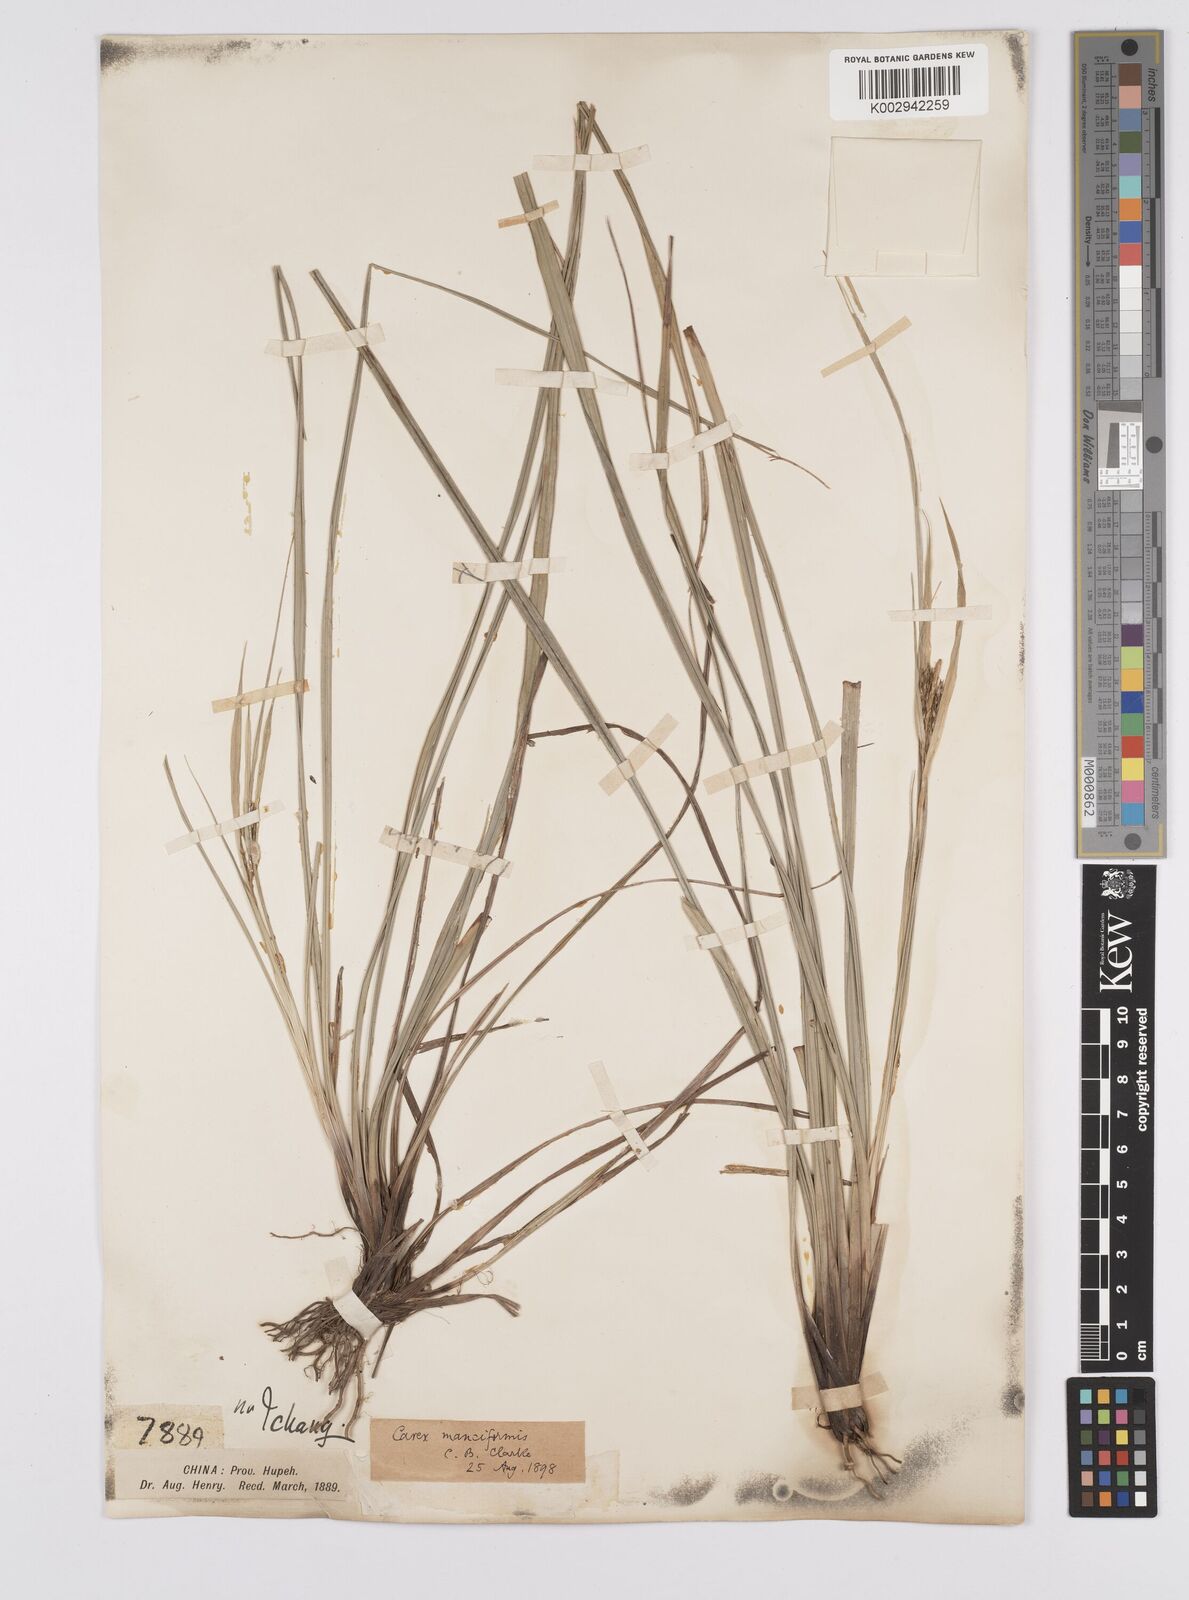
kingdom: Plantae
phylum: Tracheophyta
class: Liliopsida
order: Poales
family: Cyperaceae
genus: Carex
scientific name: Carex manciformis
